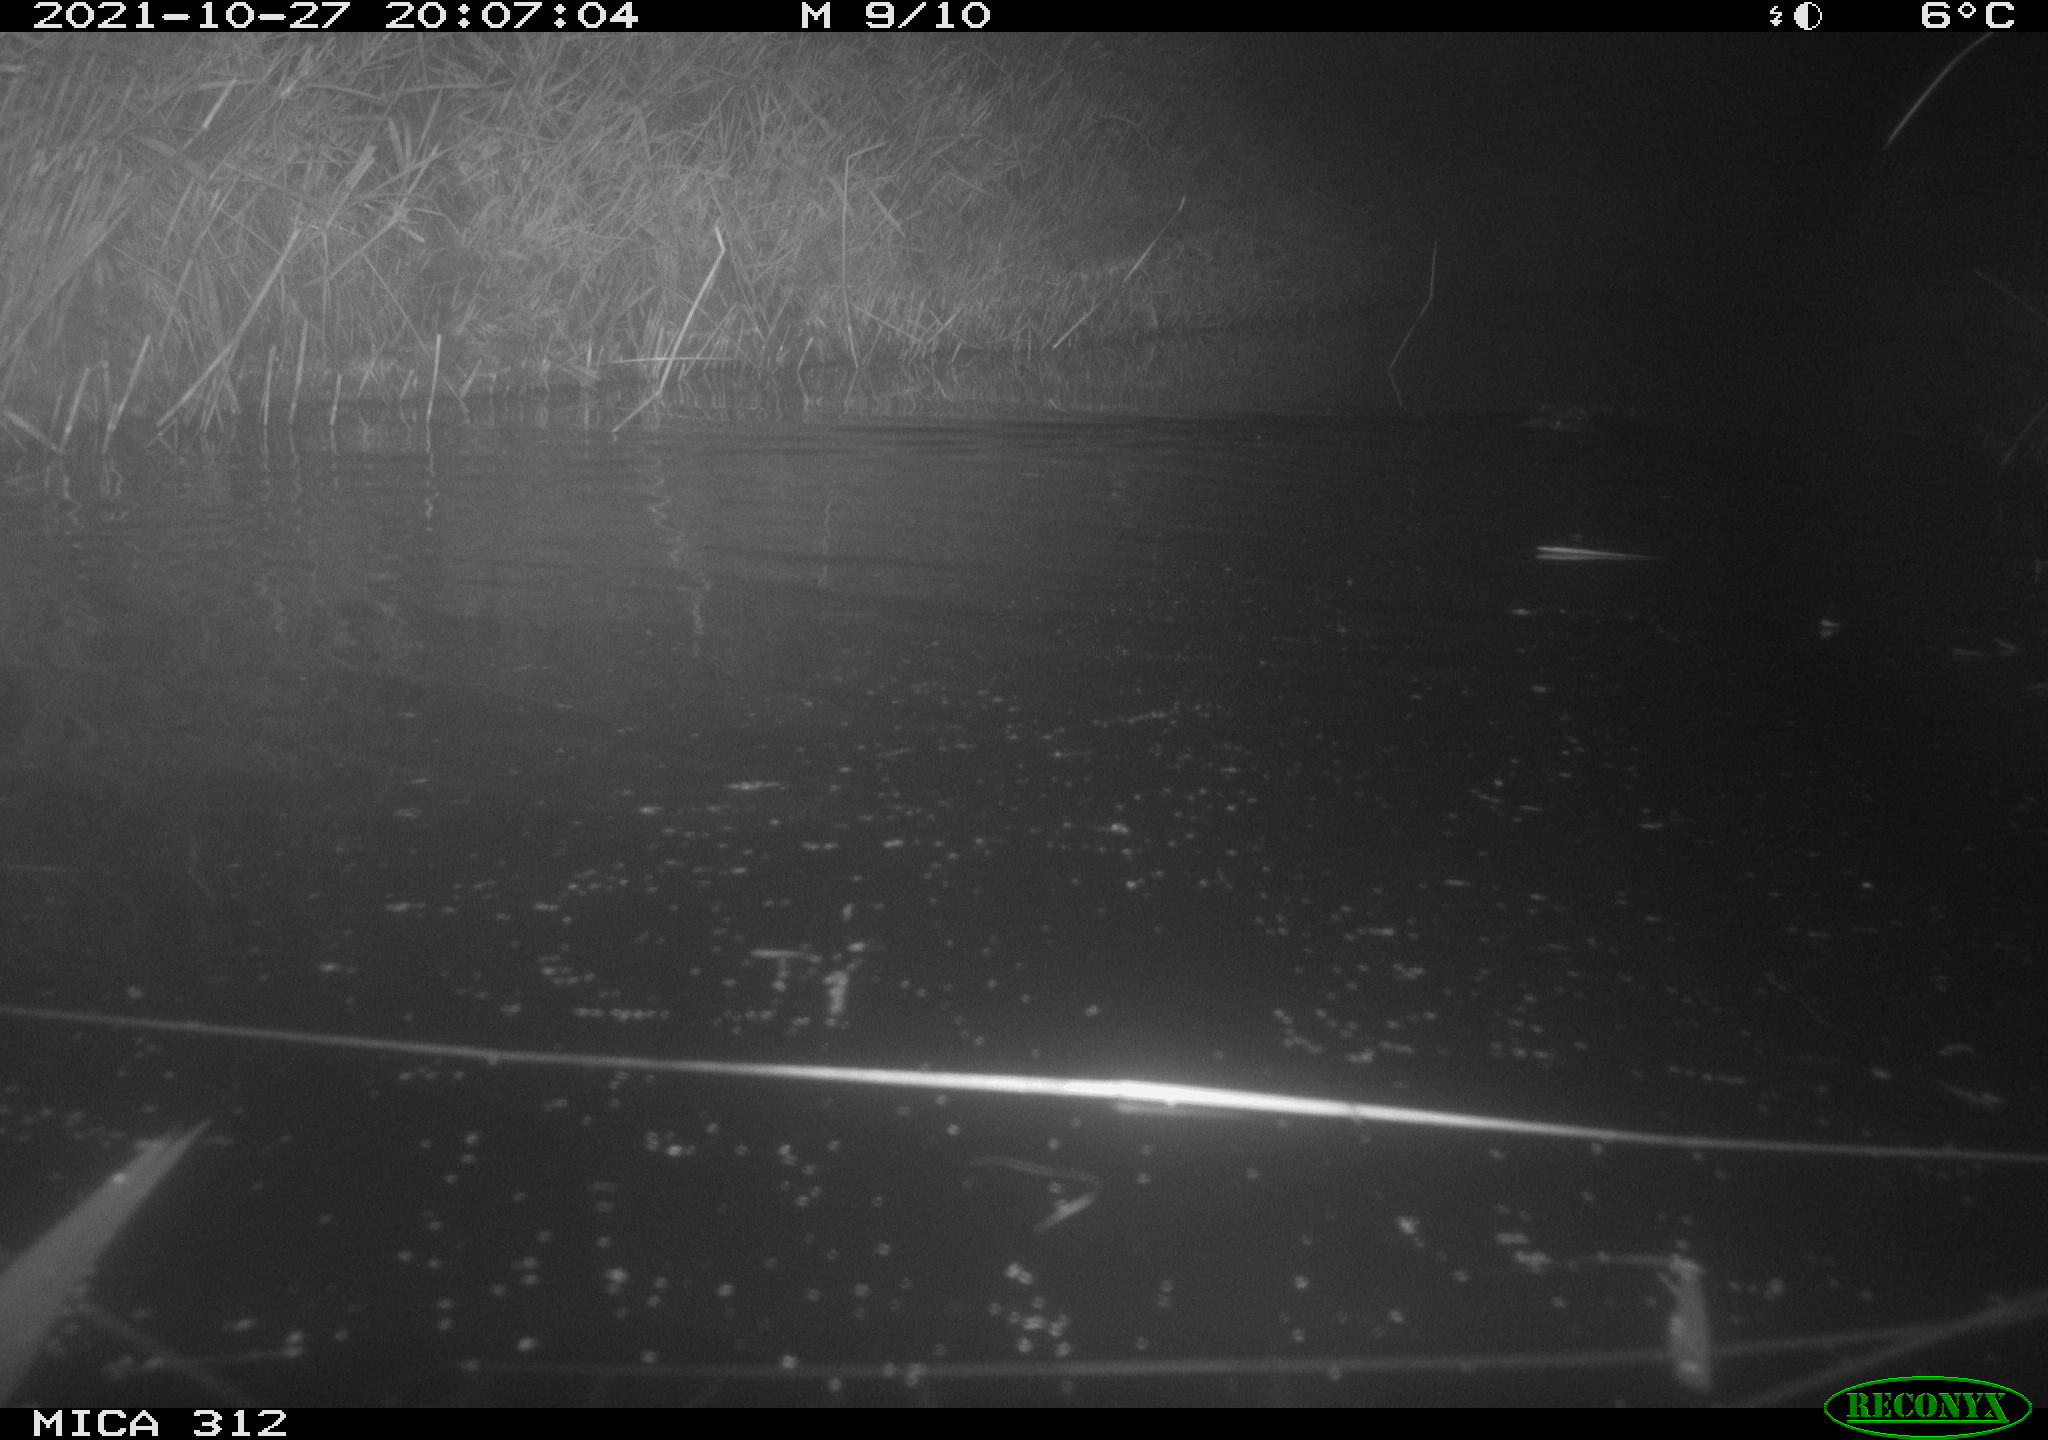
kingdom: Animalia
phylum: Chordata
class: Mammalia
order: Rodentia
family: Cricetidae
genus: Ondatra
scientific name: Ondatra zibethicus
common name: Muskrat
